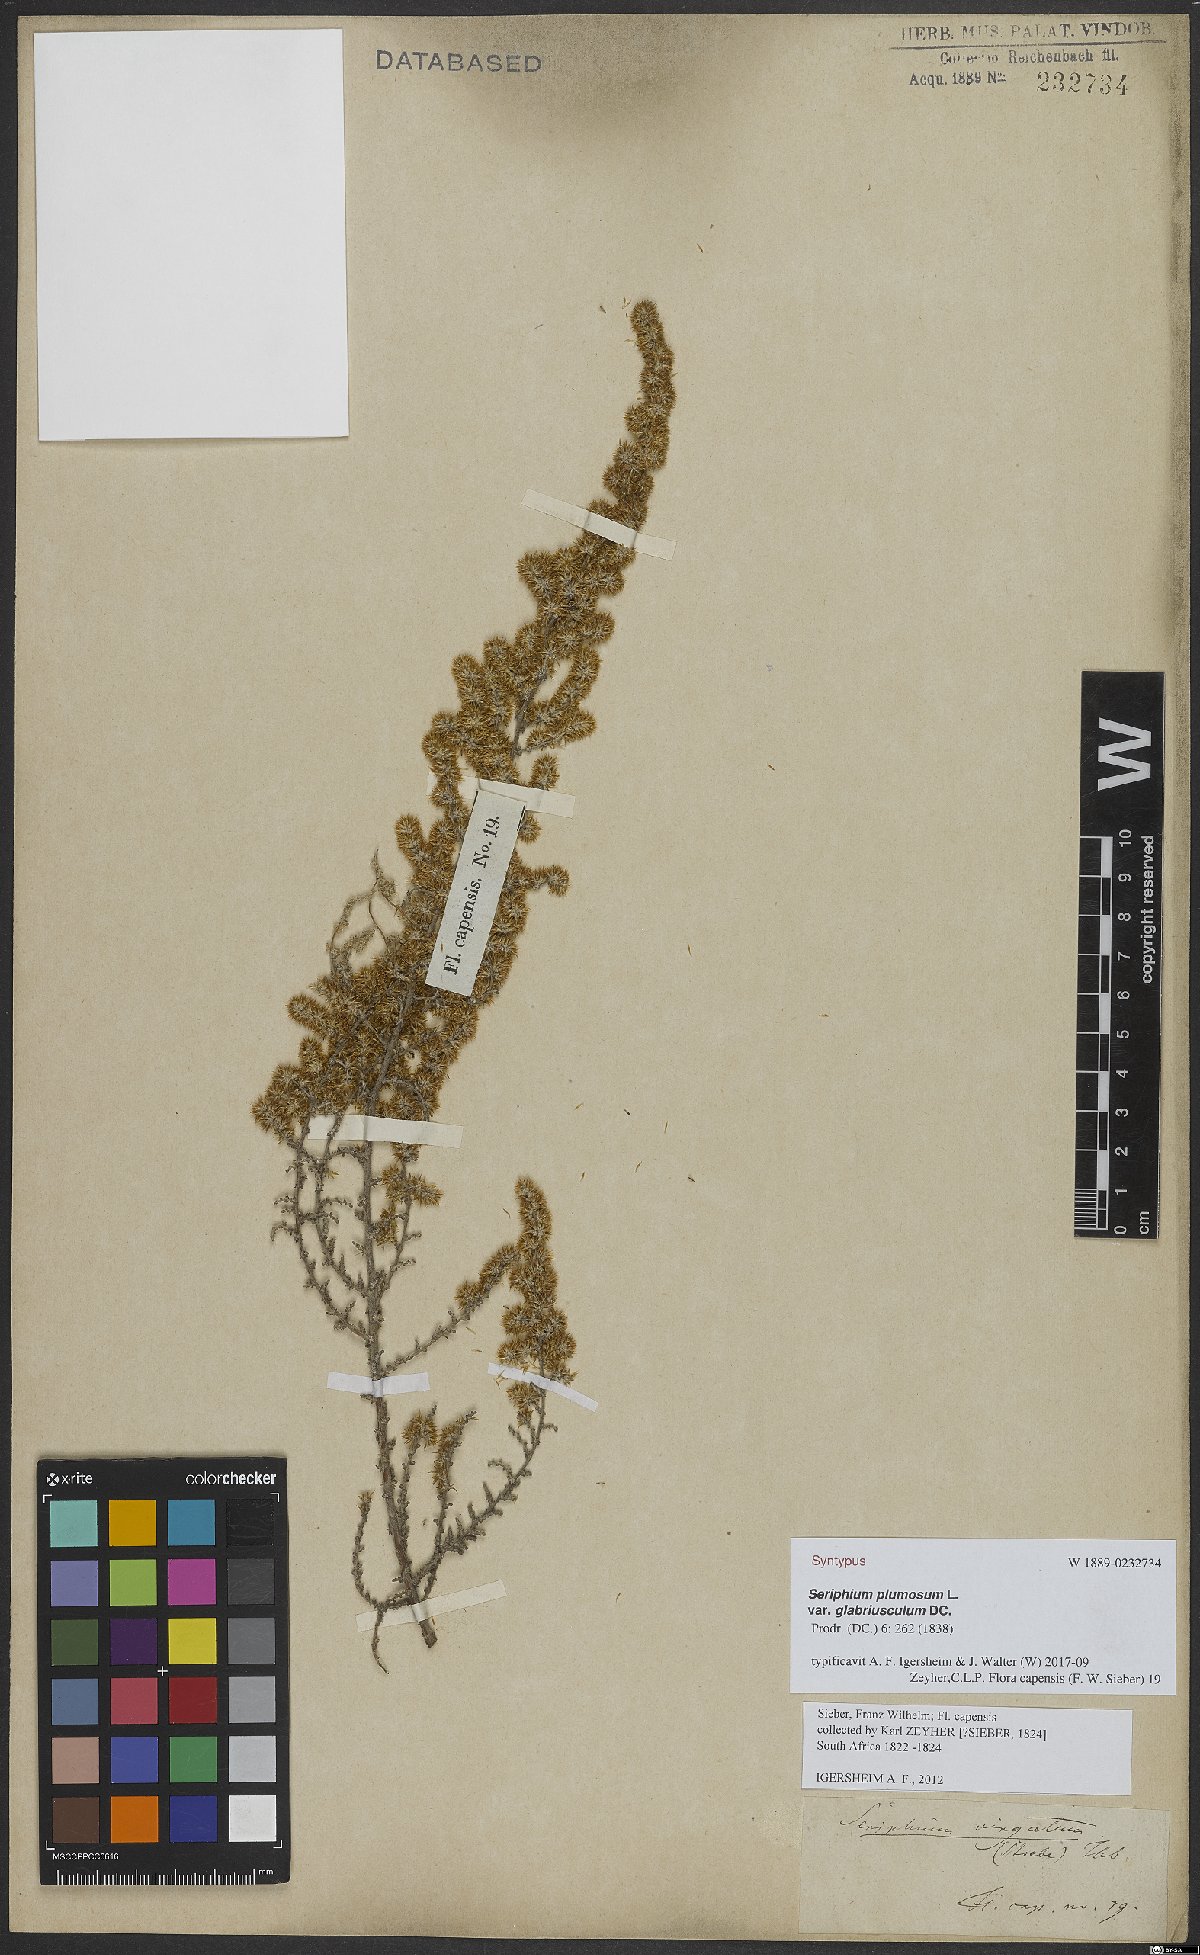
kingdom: Plantae
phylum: Tracheophyta
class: Magnoliopsida
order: Asterales
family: Asteraceae
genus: Seriphium
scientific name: Seriphium plumosum
